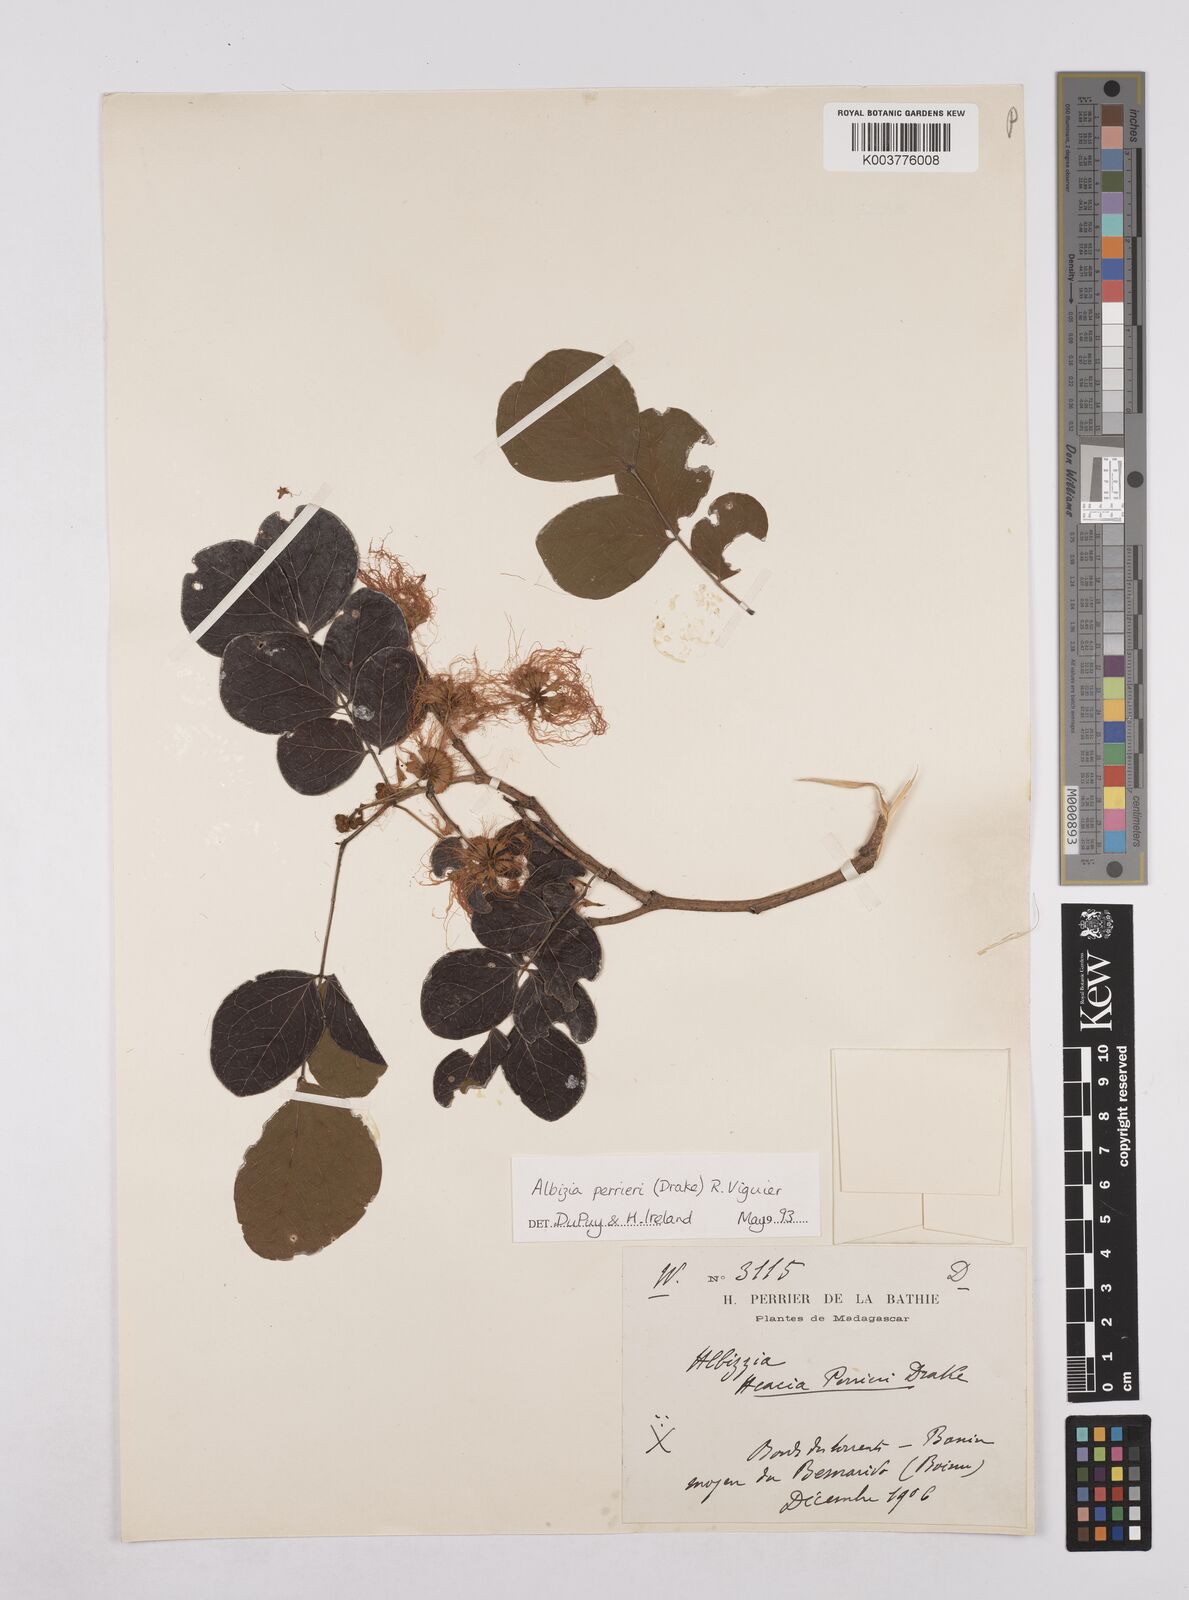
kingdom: Plantae
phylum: Tracheophyta
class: Magnoliopsida
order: Fabales
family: Fabaceae
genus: Albizia
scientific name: Albizia perrieri
